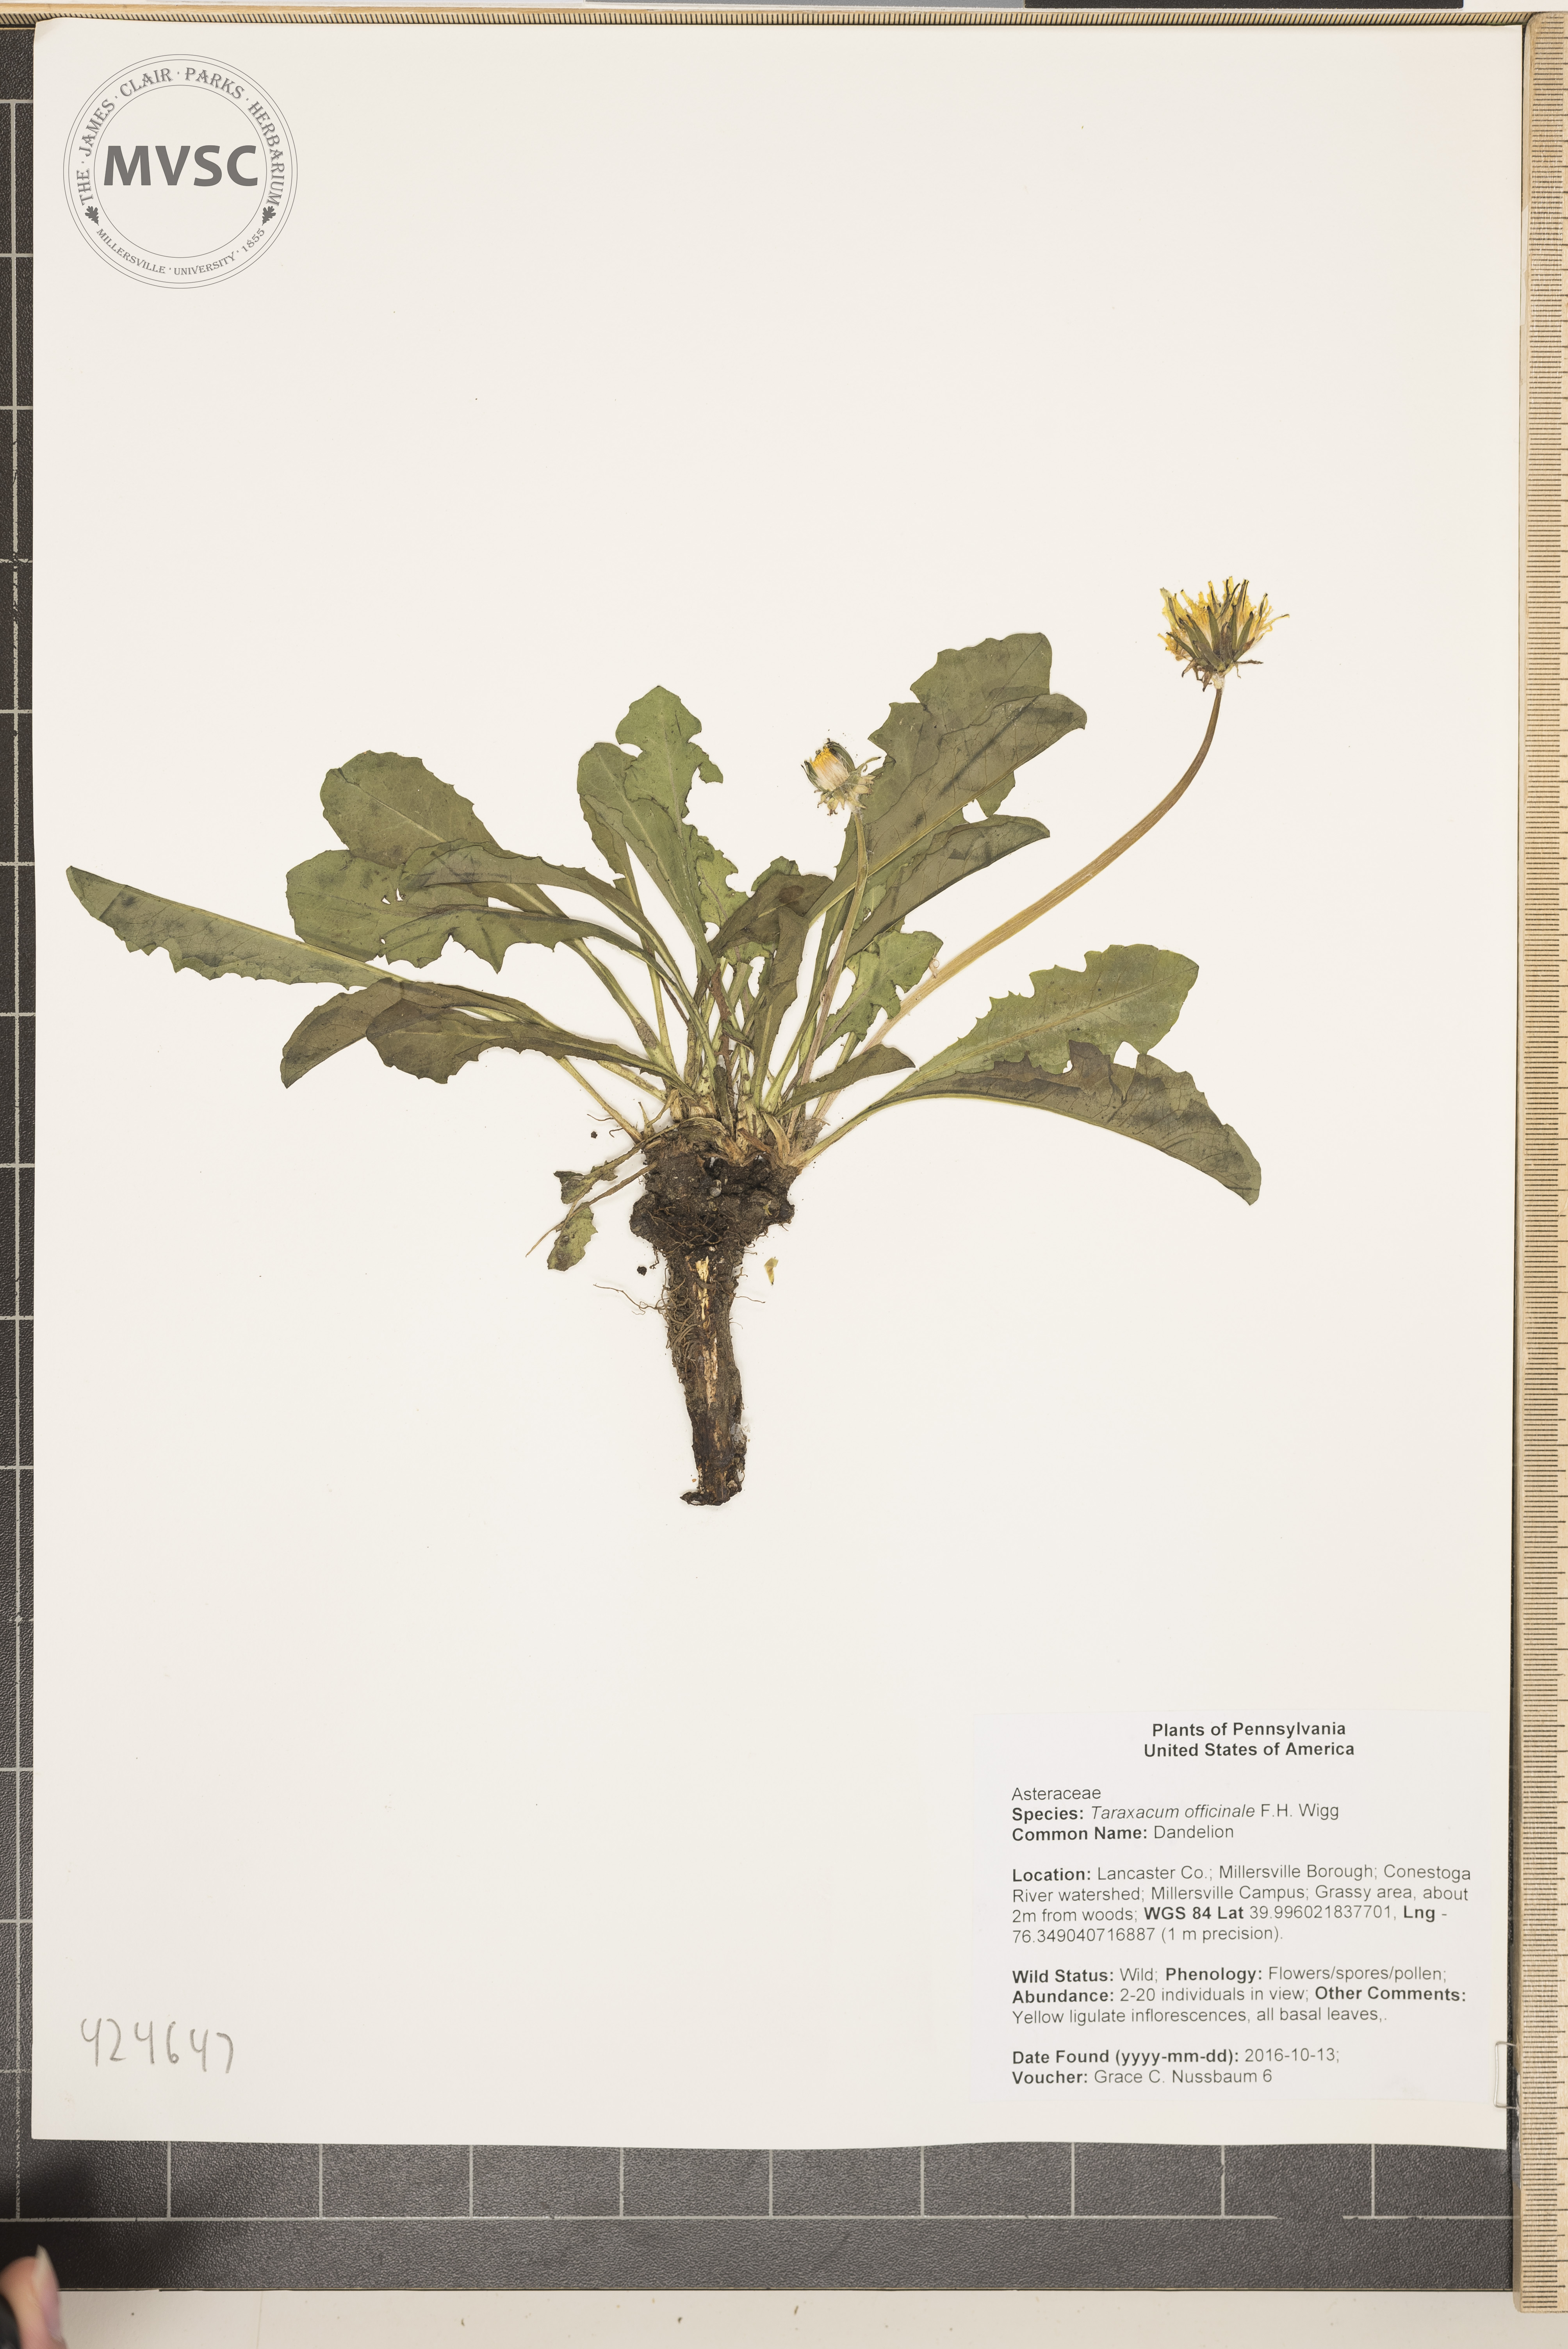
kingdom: Plantae
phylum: Tracheophyta
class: Magnoliopsida
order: Asterales
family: Asteraceae
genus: Taraxacum
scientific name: Taraxacum officinale
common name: Dandelion
